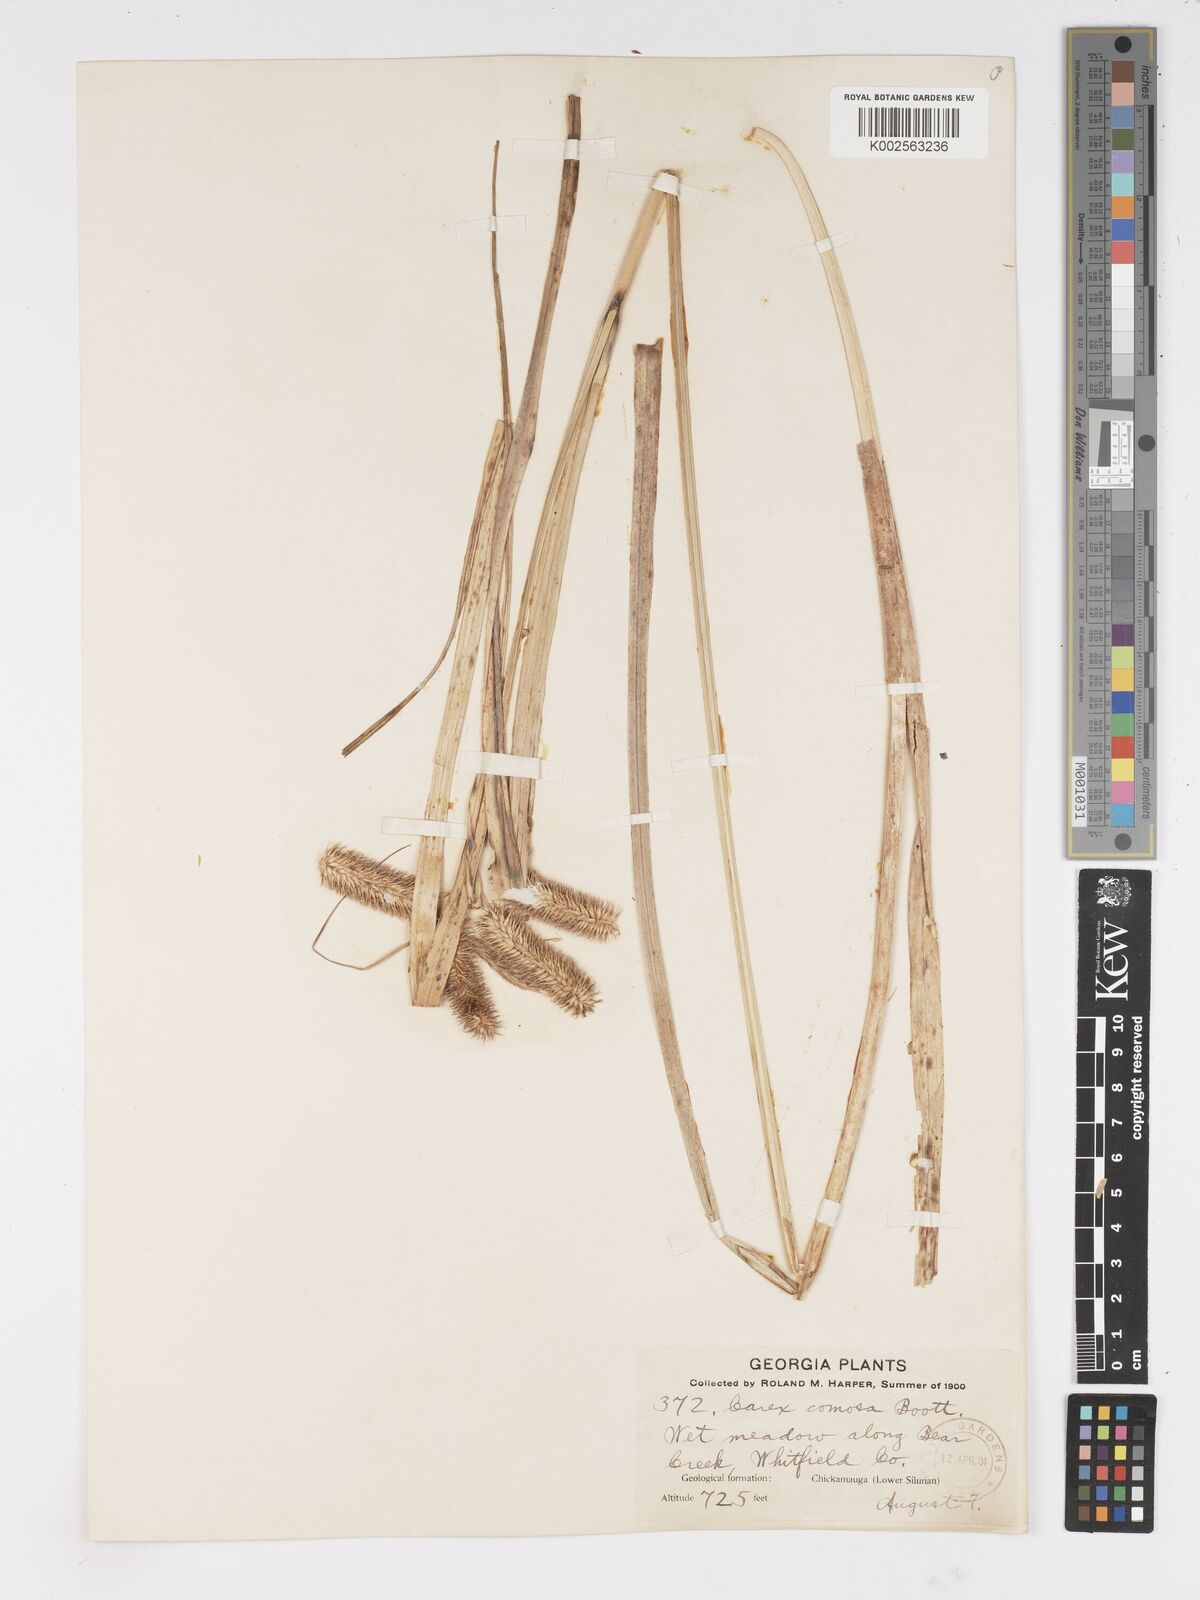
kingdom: Plantae
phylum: Tracheophyta
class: Liliopsida
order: Poales
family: Cyperaceae
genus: Carex
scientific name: Carex comosa
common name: Bristly sedge
